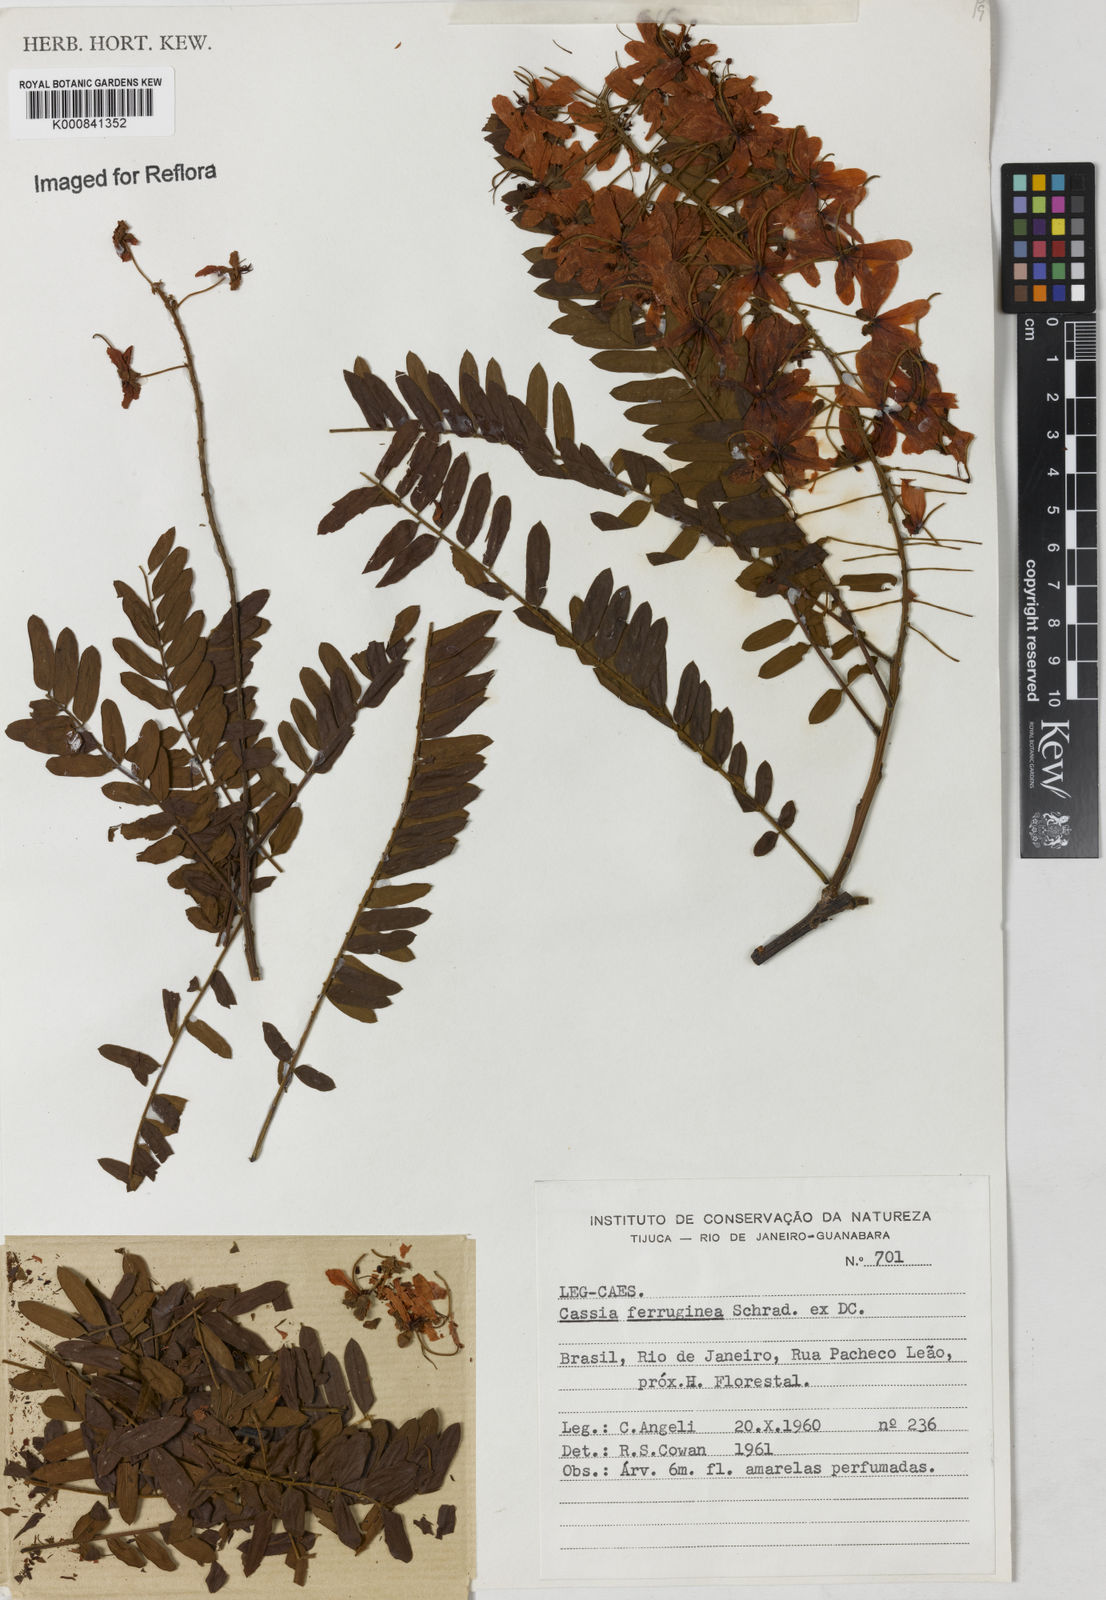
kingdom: Plantae
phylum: Tracheophyta
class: Magnoliopsida
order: Fabales
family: Fabaceae
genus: Cassia
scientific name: Cassia ferruginea
